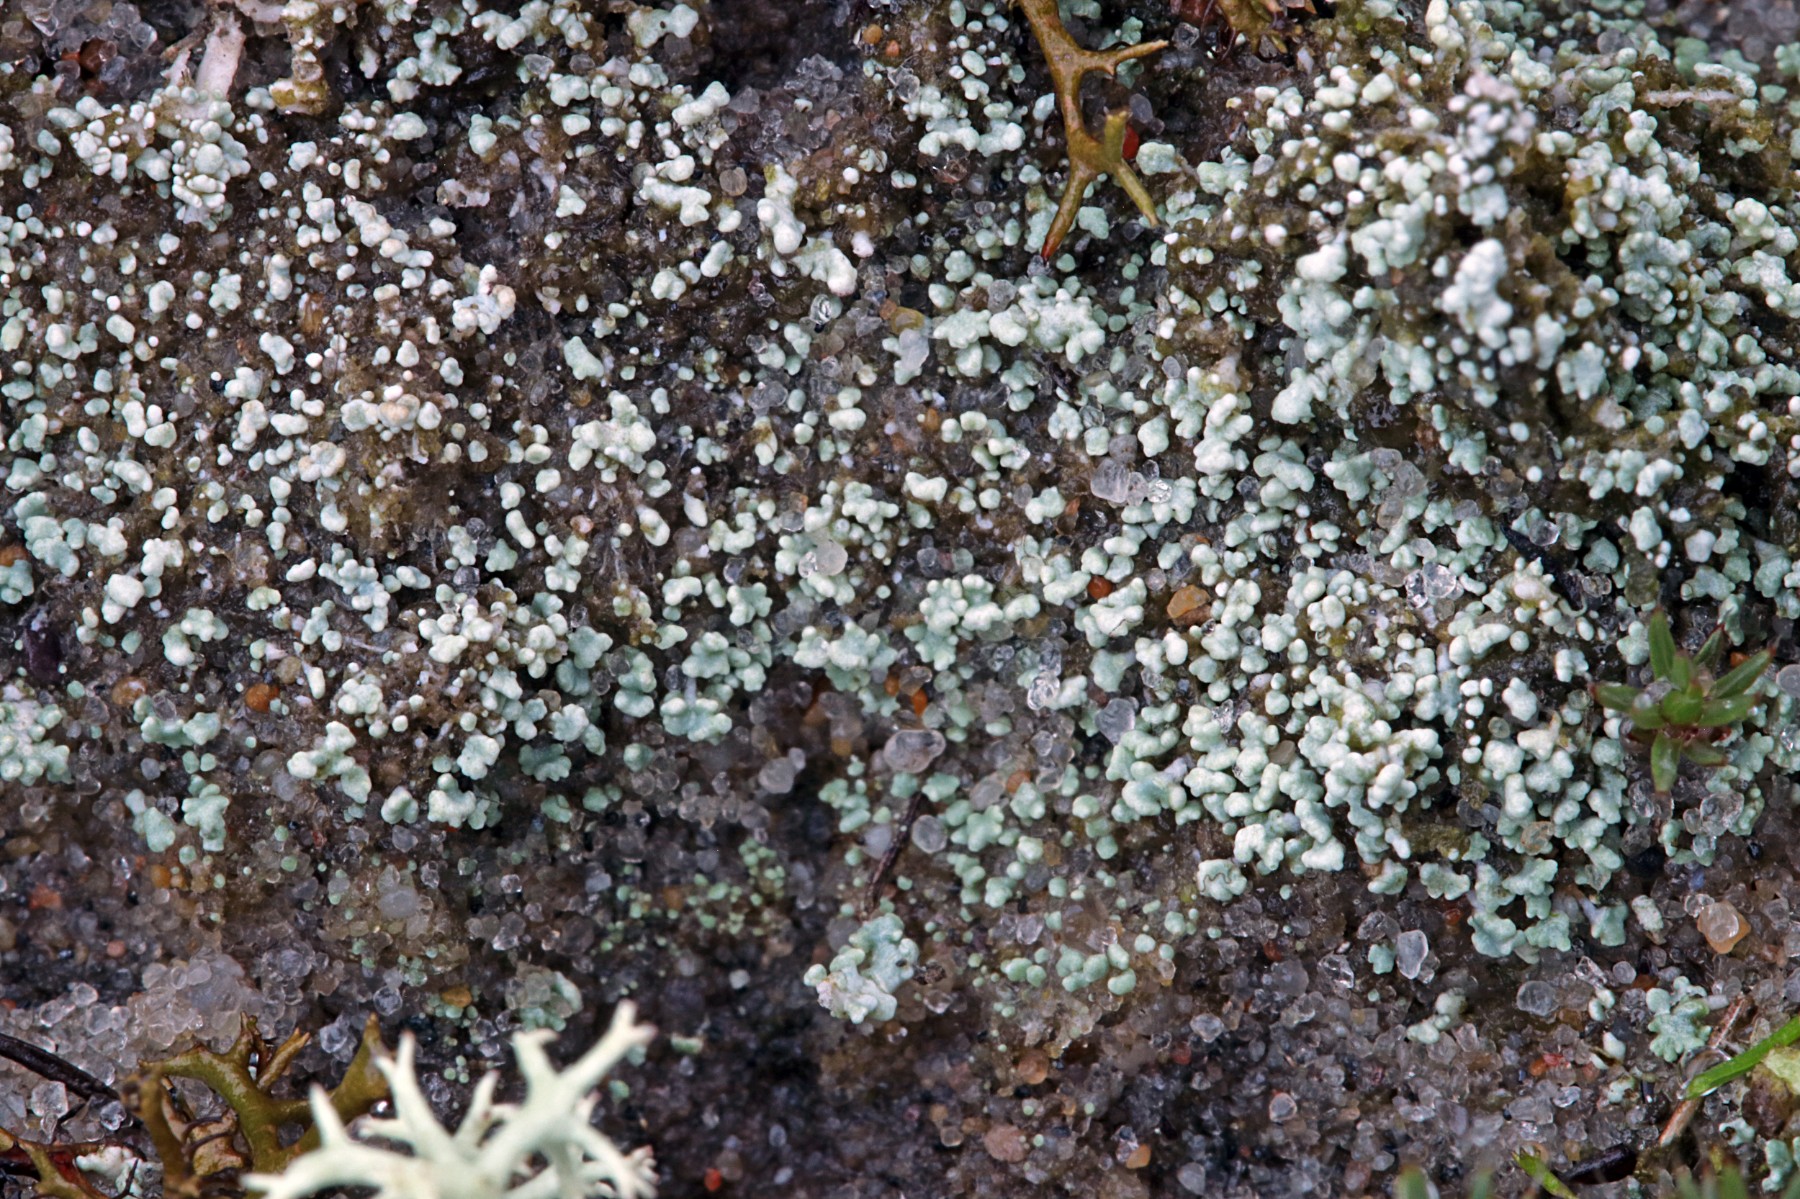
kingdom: Fungi
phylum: Ascomycota
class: Lecanoromycetes
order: Lecanorales
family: Stereocaulaceae
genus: Stereocaulon
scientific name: Stereocaulon condensatum
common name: lav korallav
